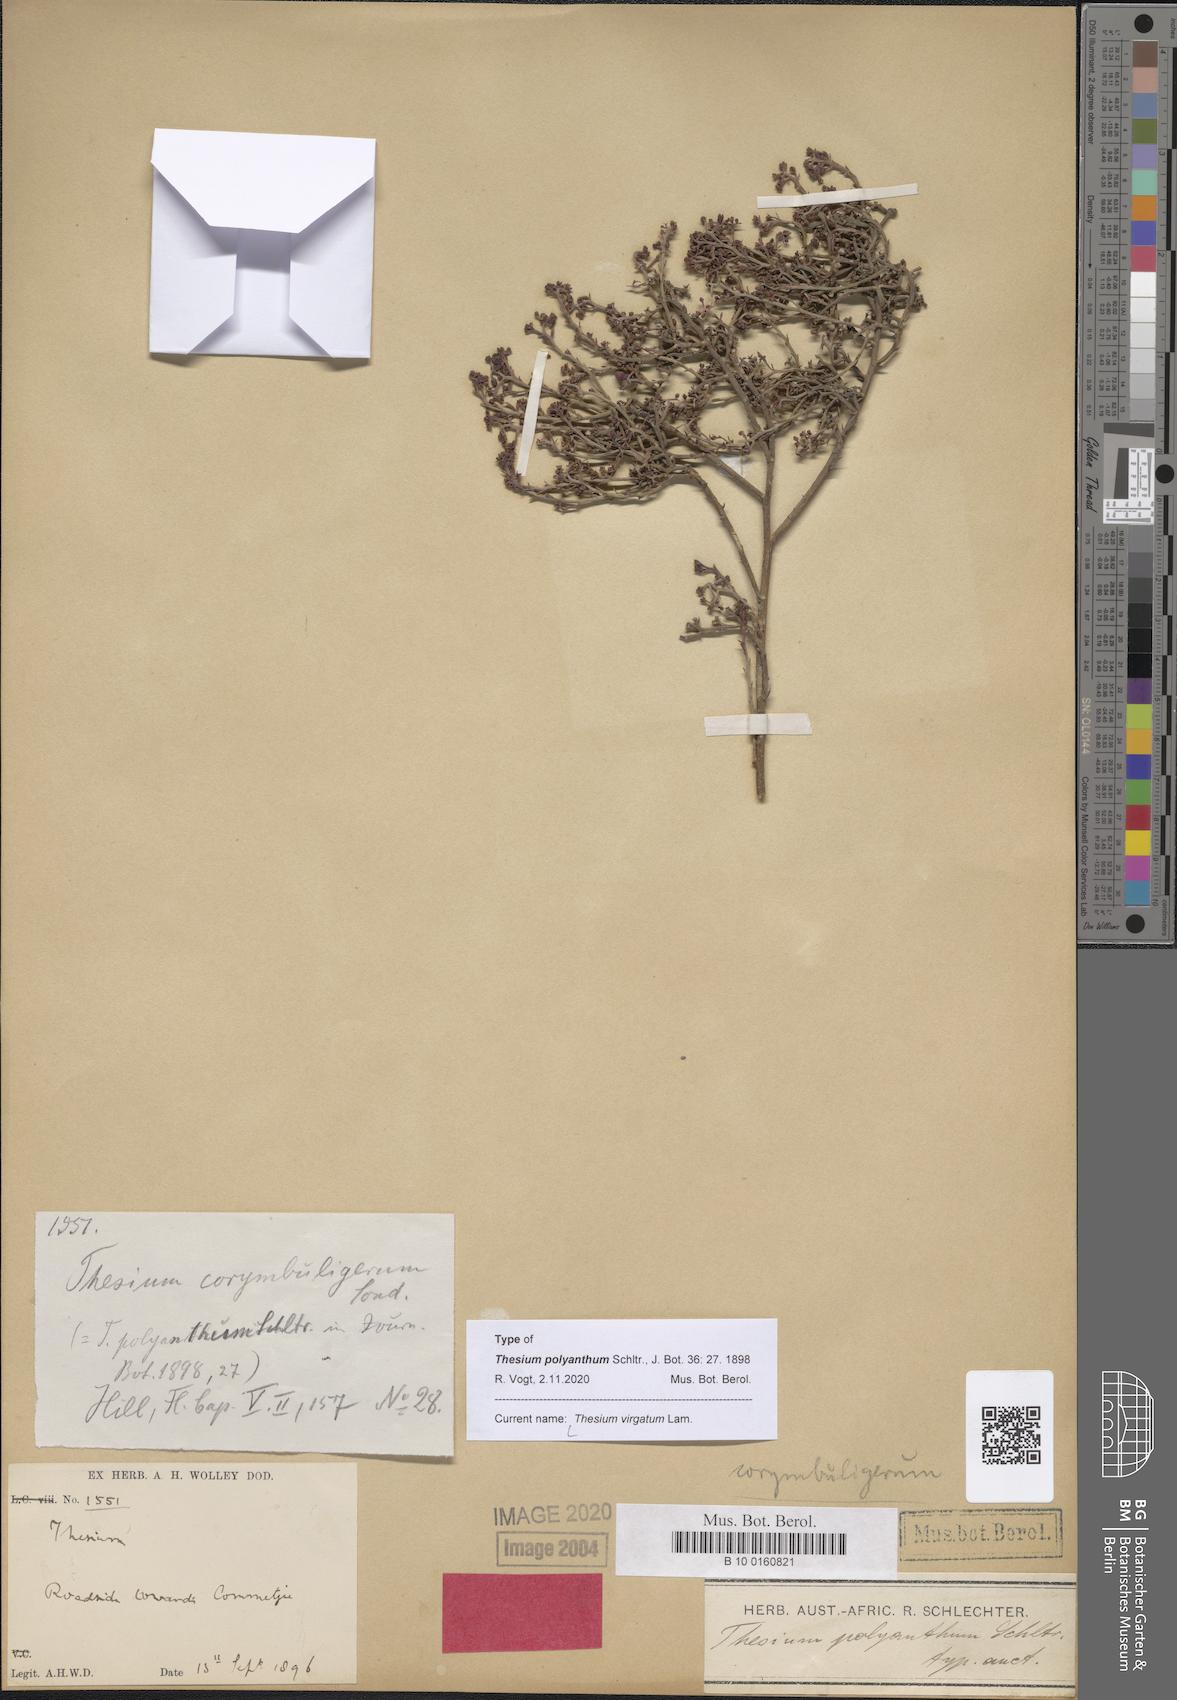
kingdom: Plantae
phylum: Tracheophyta
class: Magnoliopsida
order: Santalales
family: Thesiaceae
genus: Thesium
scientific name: Thesium virgatum
